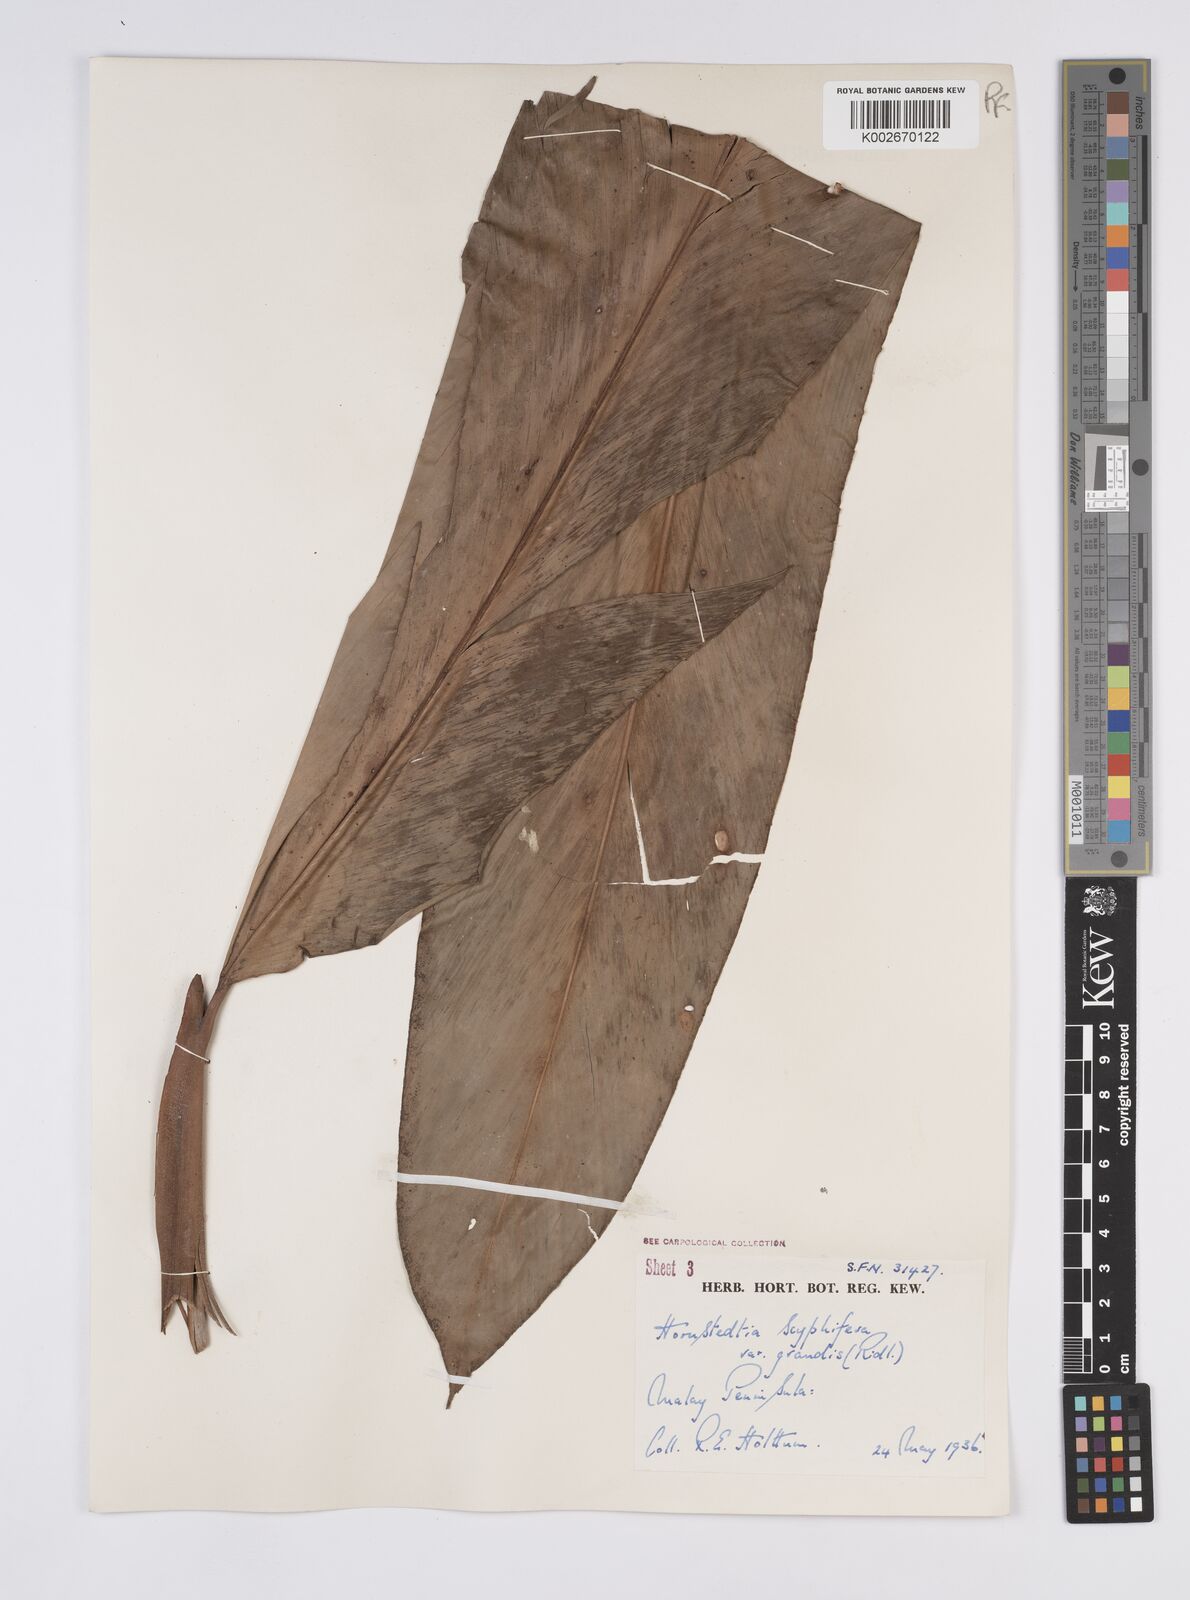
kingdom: Plantae
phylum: Tracheophyta
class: Liliopsida
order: Zingiberales
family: Zingiberaceae
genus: Hornstedtia
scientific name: Hornstedtia scyphifera
